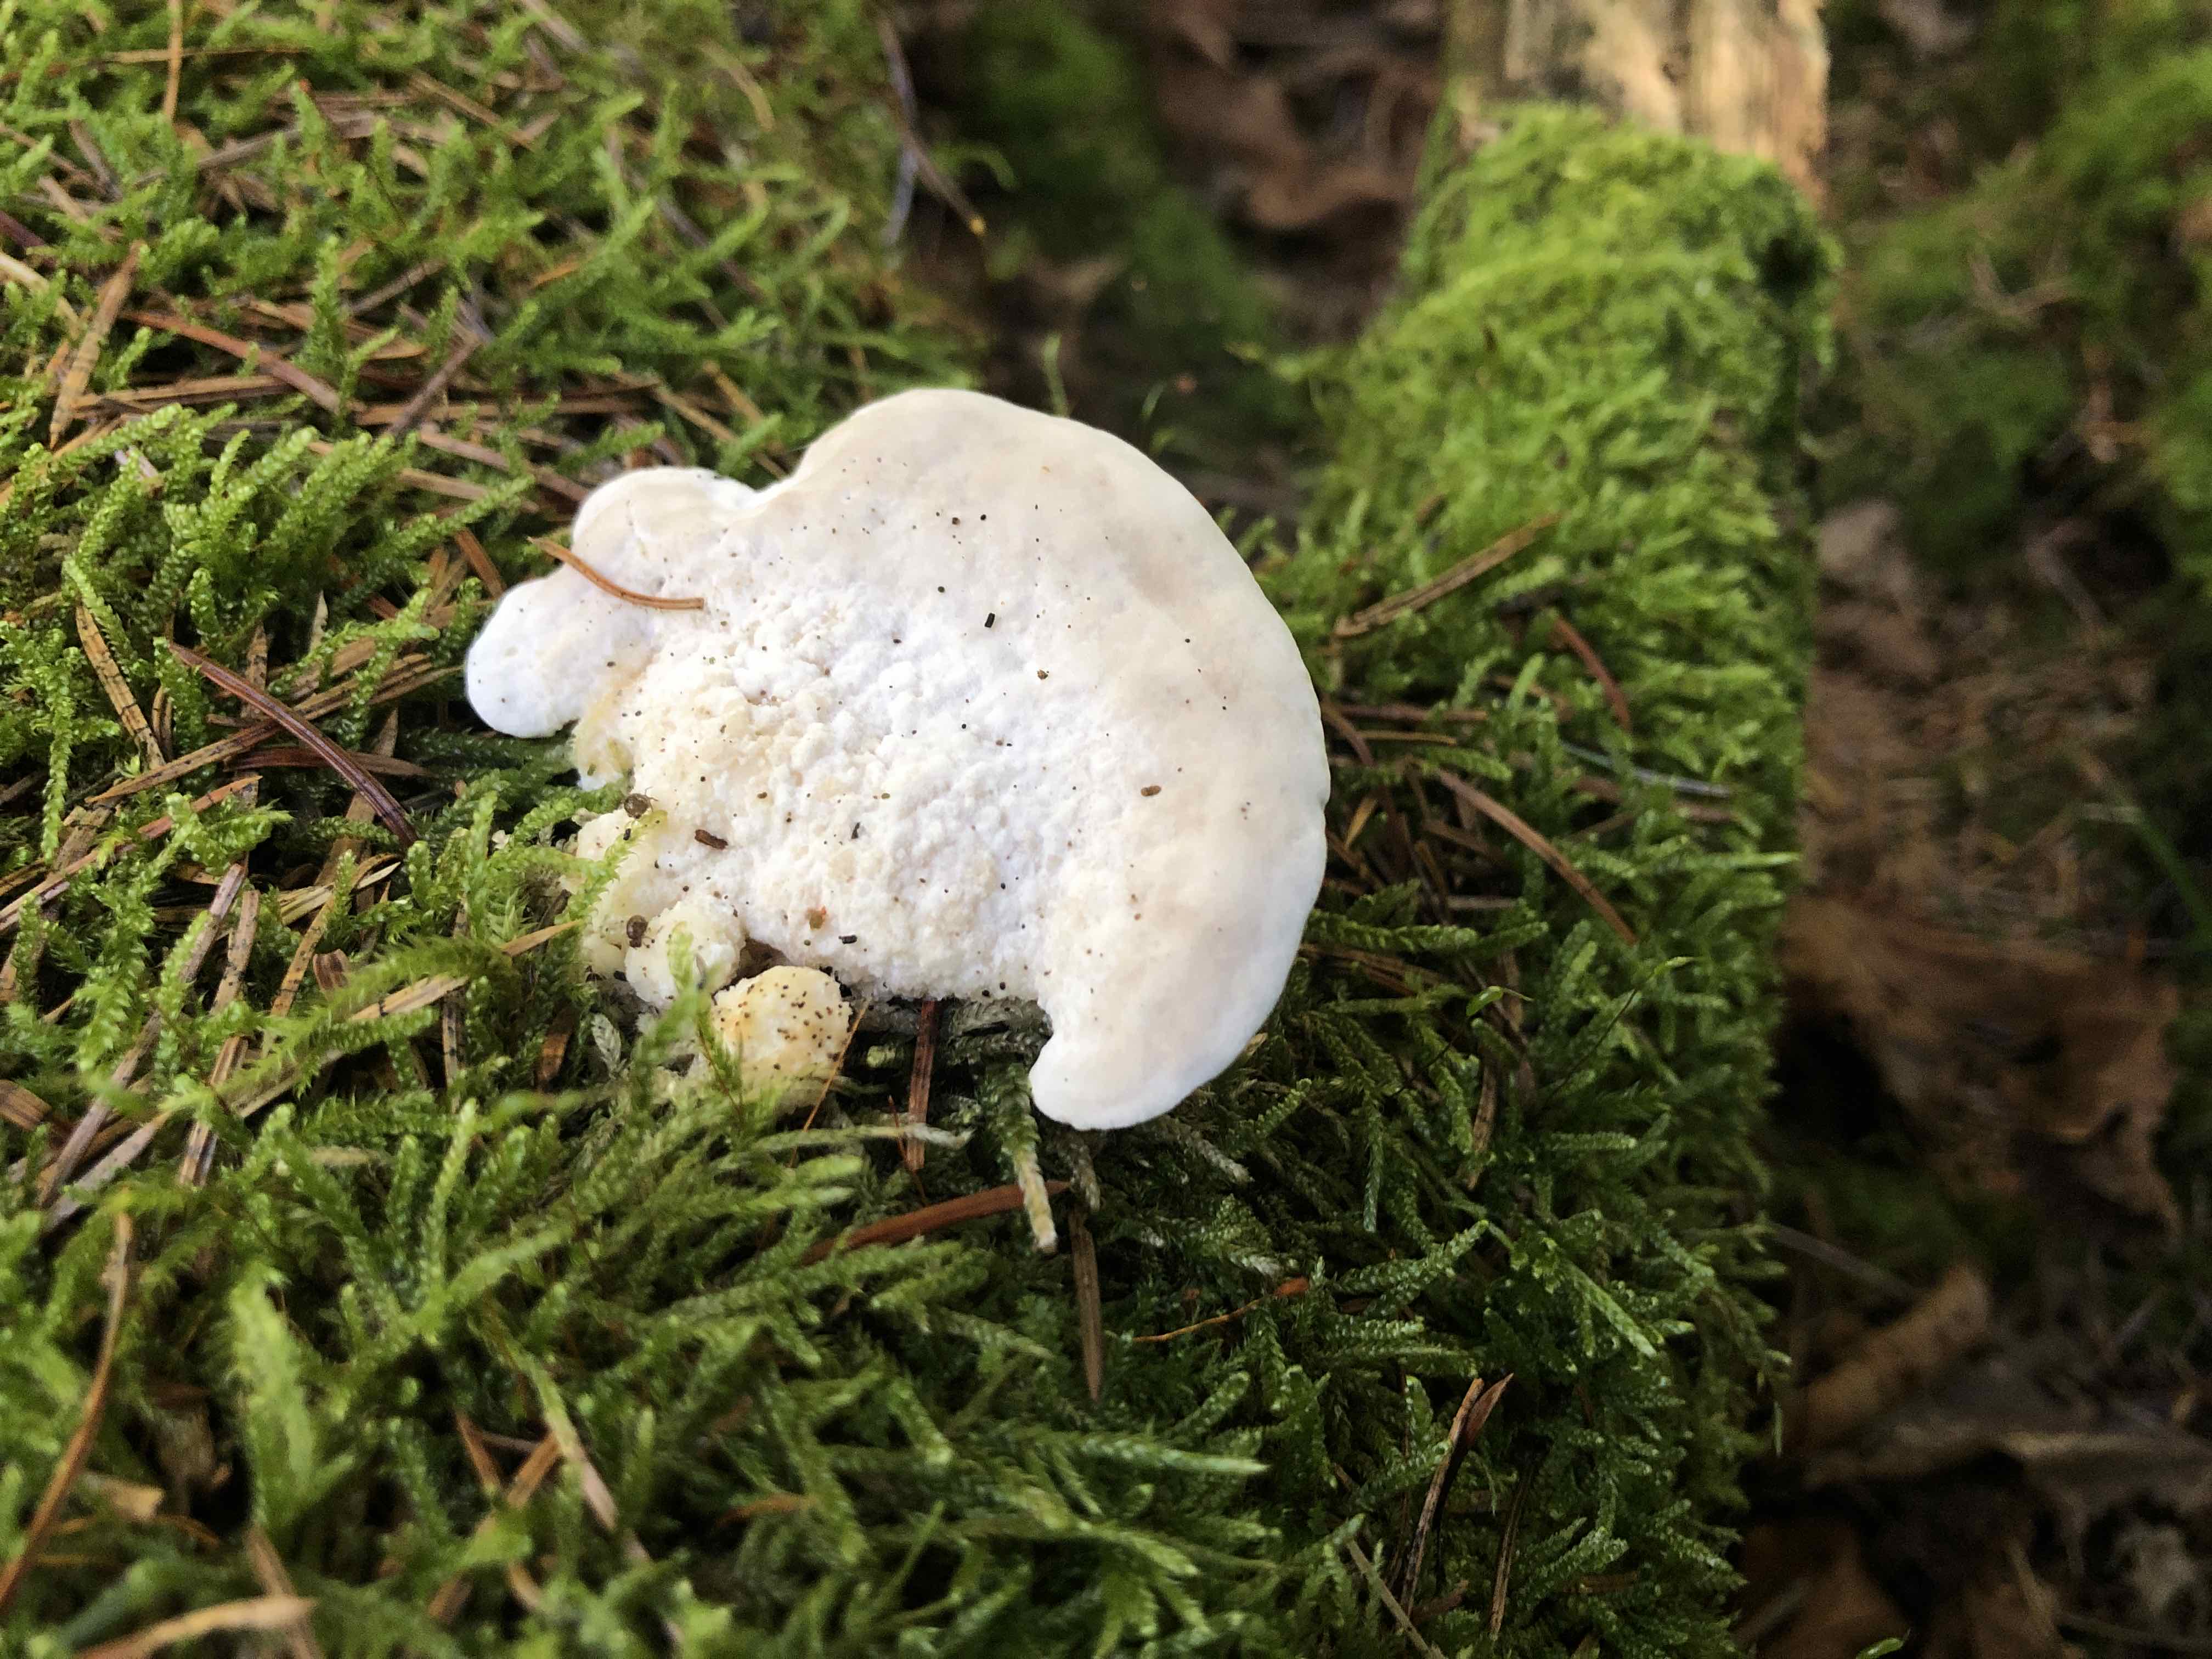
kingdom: Fungi
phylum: Basidiomycota
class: Agaricomycetes
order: Polyporales
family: Dacryobolaceae
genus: Postia
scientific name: Postia
